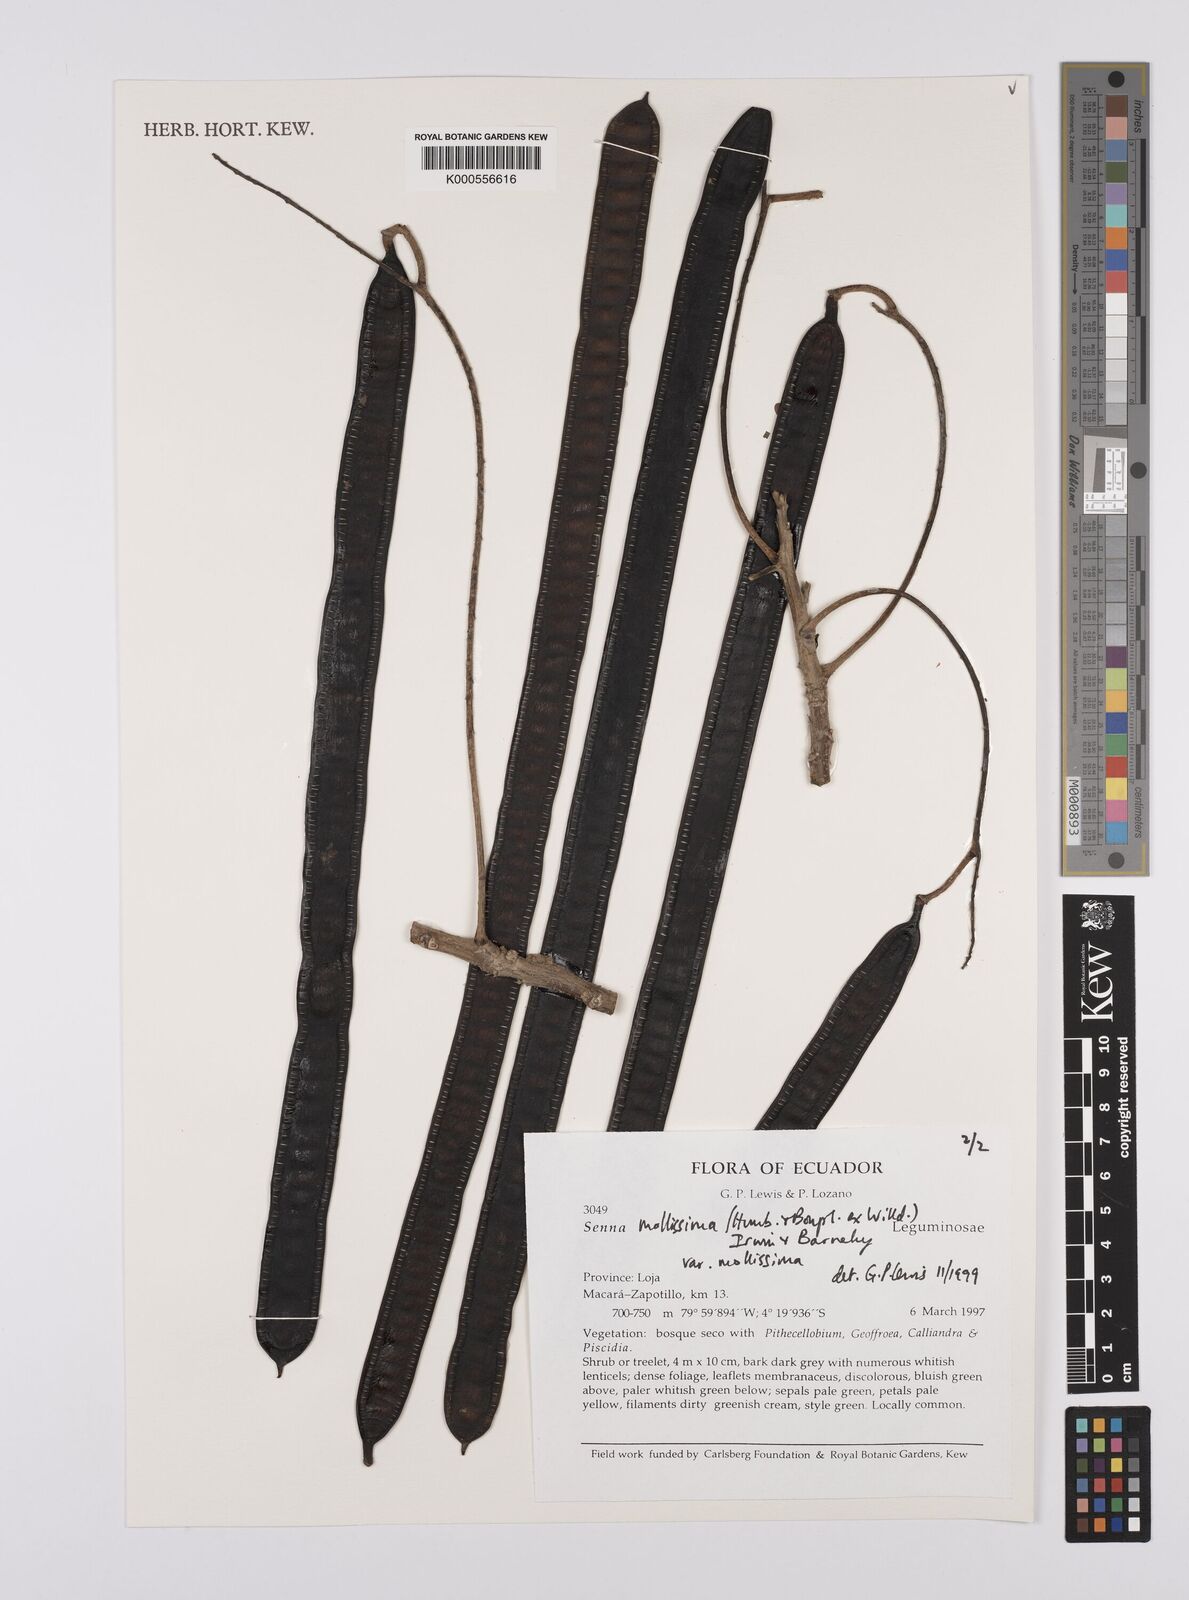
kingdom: Plantae
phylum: Tracheophyta
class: Magnoliopsida
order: Fabales
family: Fabaceae
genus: Senna
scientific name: Senna mollissima
